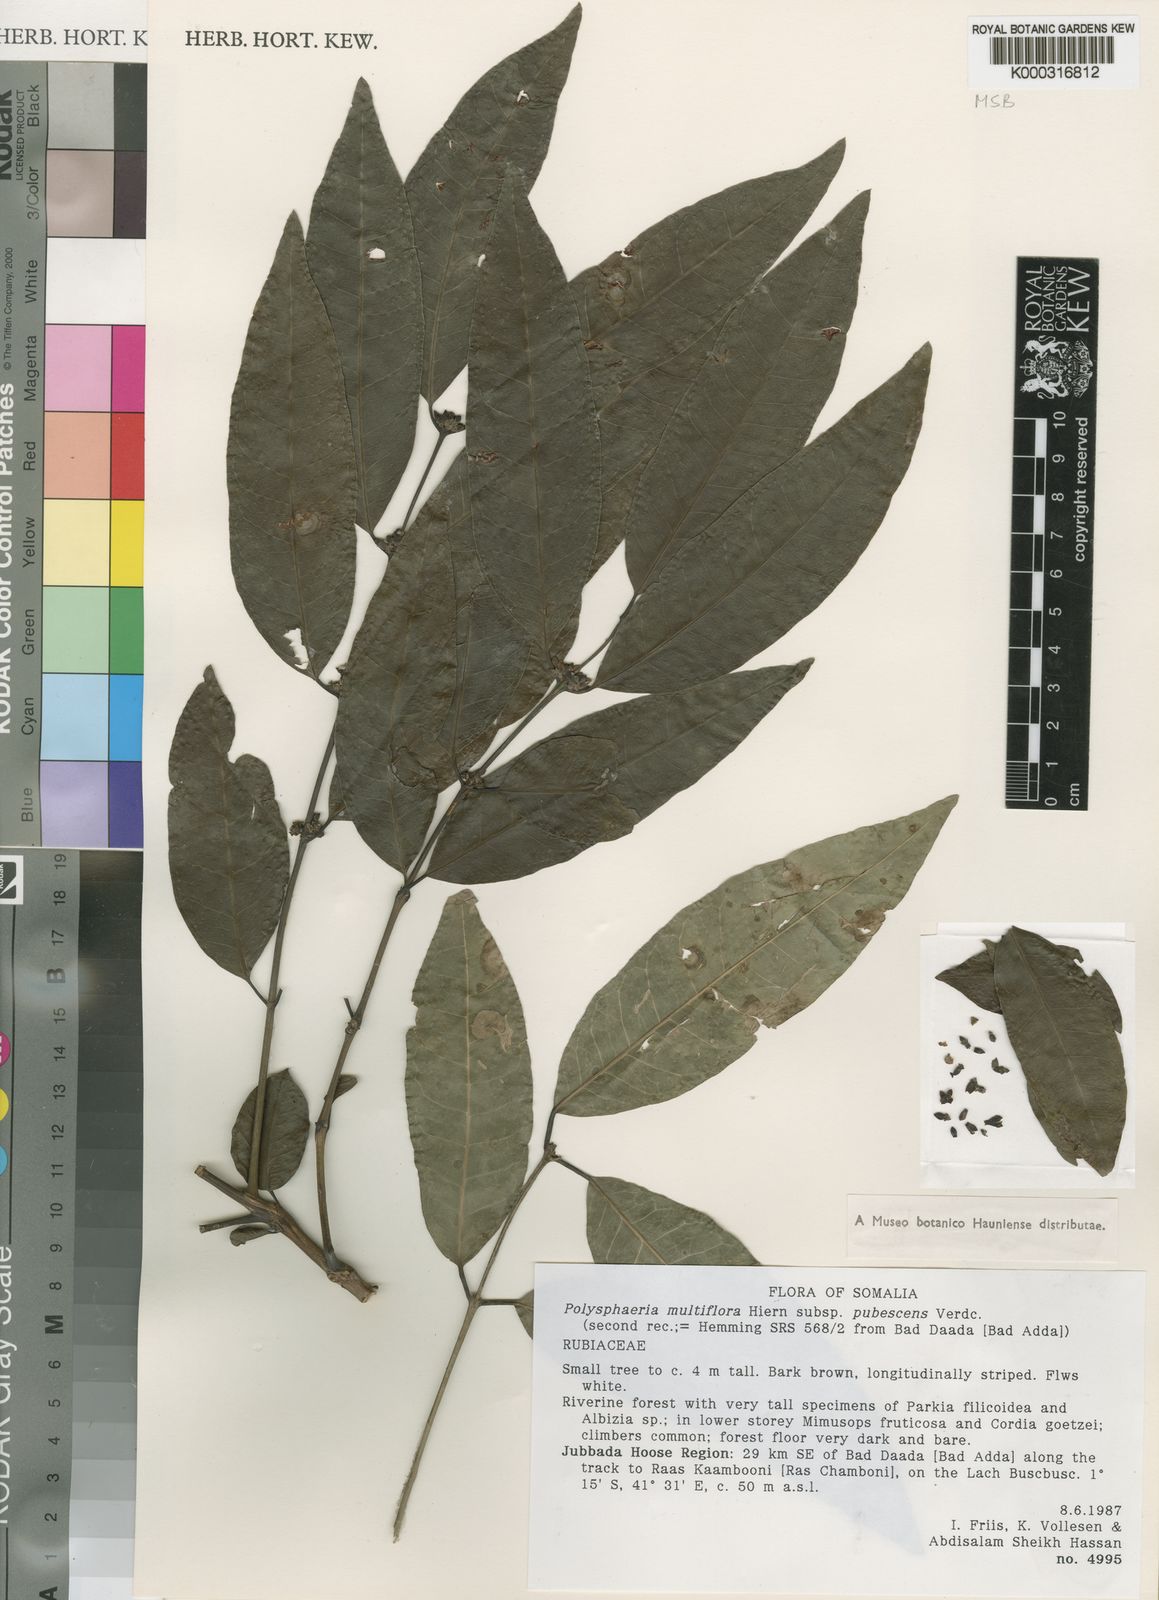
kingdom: Plantae
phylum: Tracheophyta
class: Magnoliopsida
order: Gentianales
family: Rubiaceae
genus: Polysphaeria
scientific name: Polysphaeria multiflora
